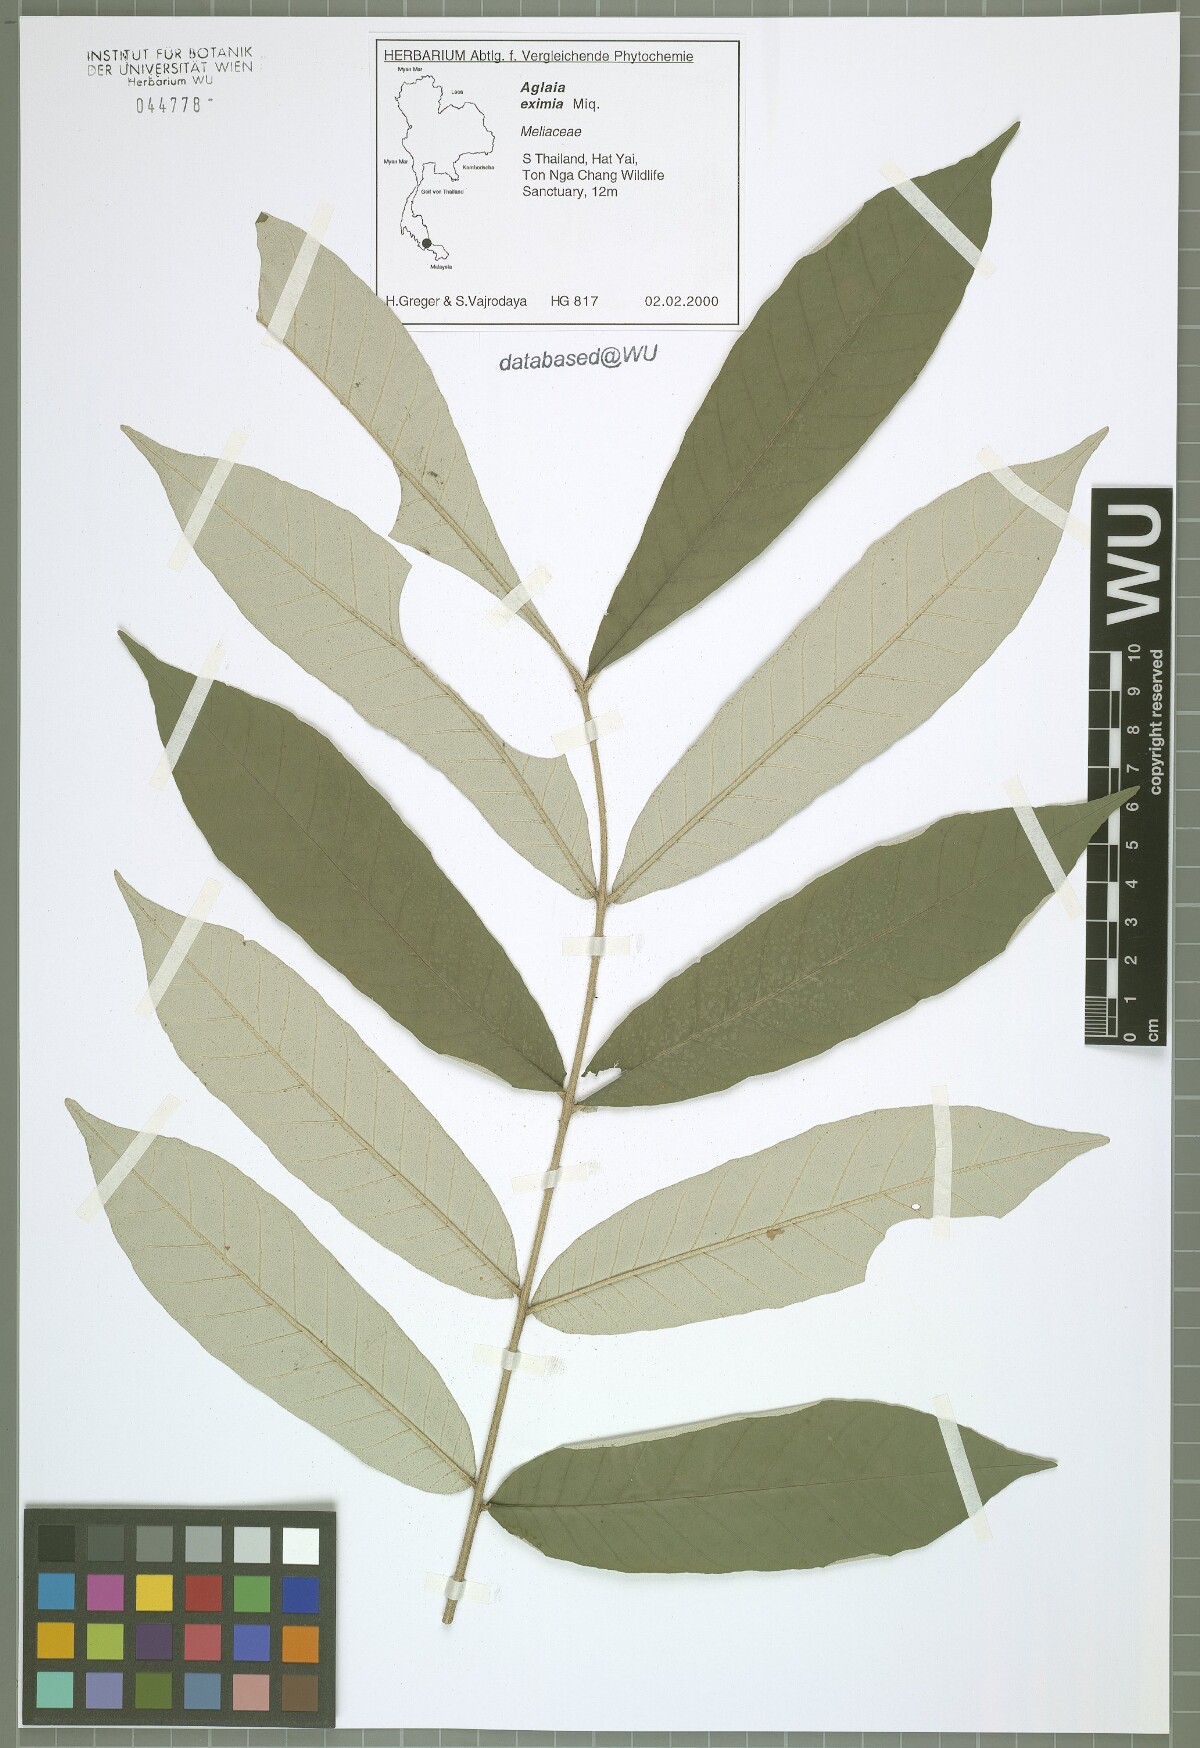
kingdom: Plantae
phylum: Tracheophyta
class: Magnoliopsida
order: Sapindales
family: Meliaceae
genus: Aglaia
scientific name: Aglaia eximia
